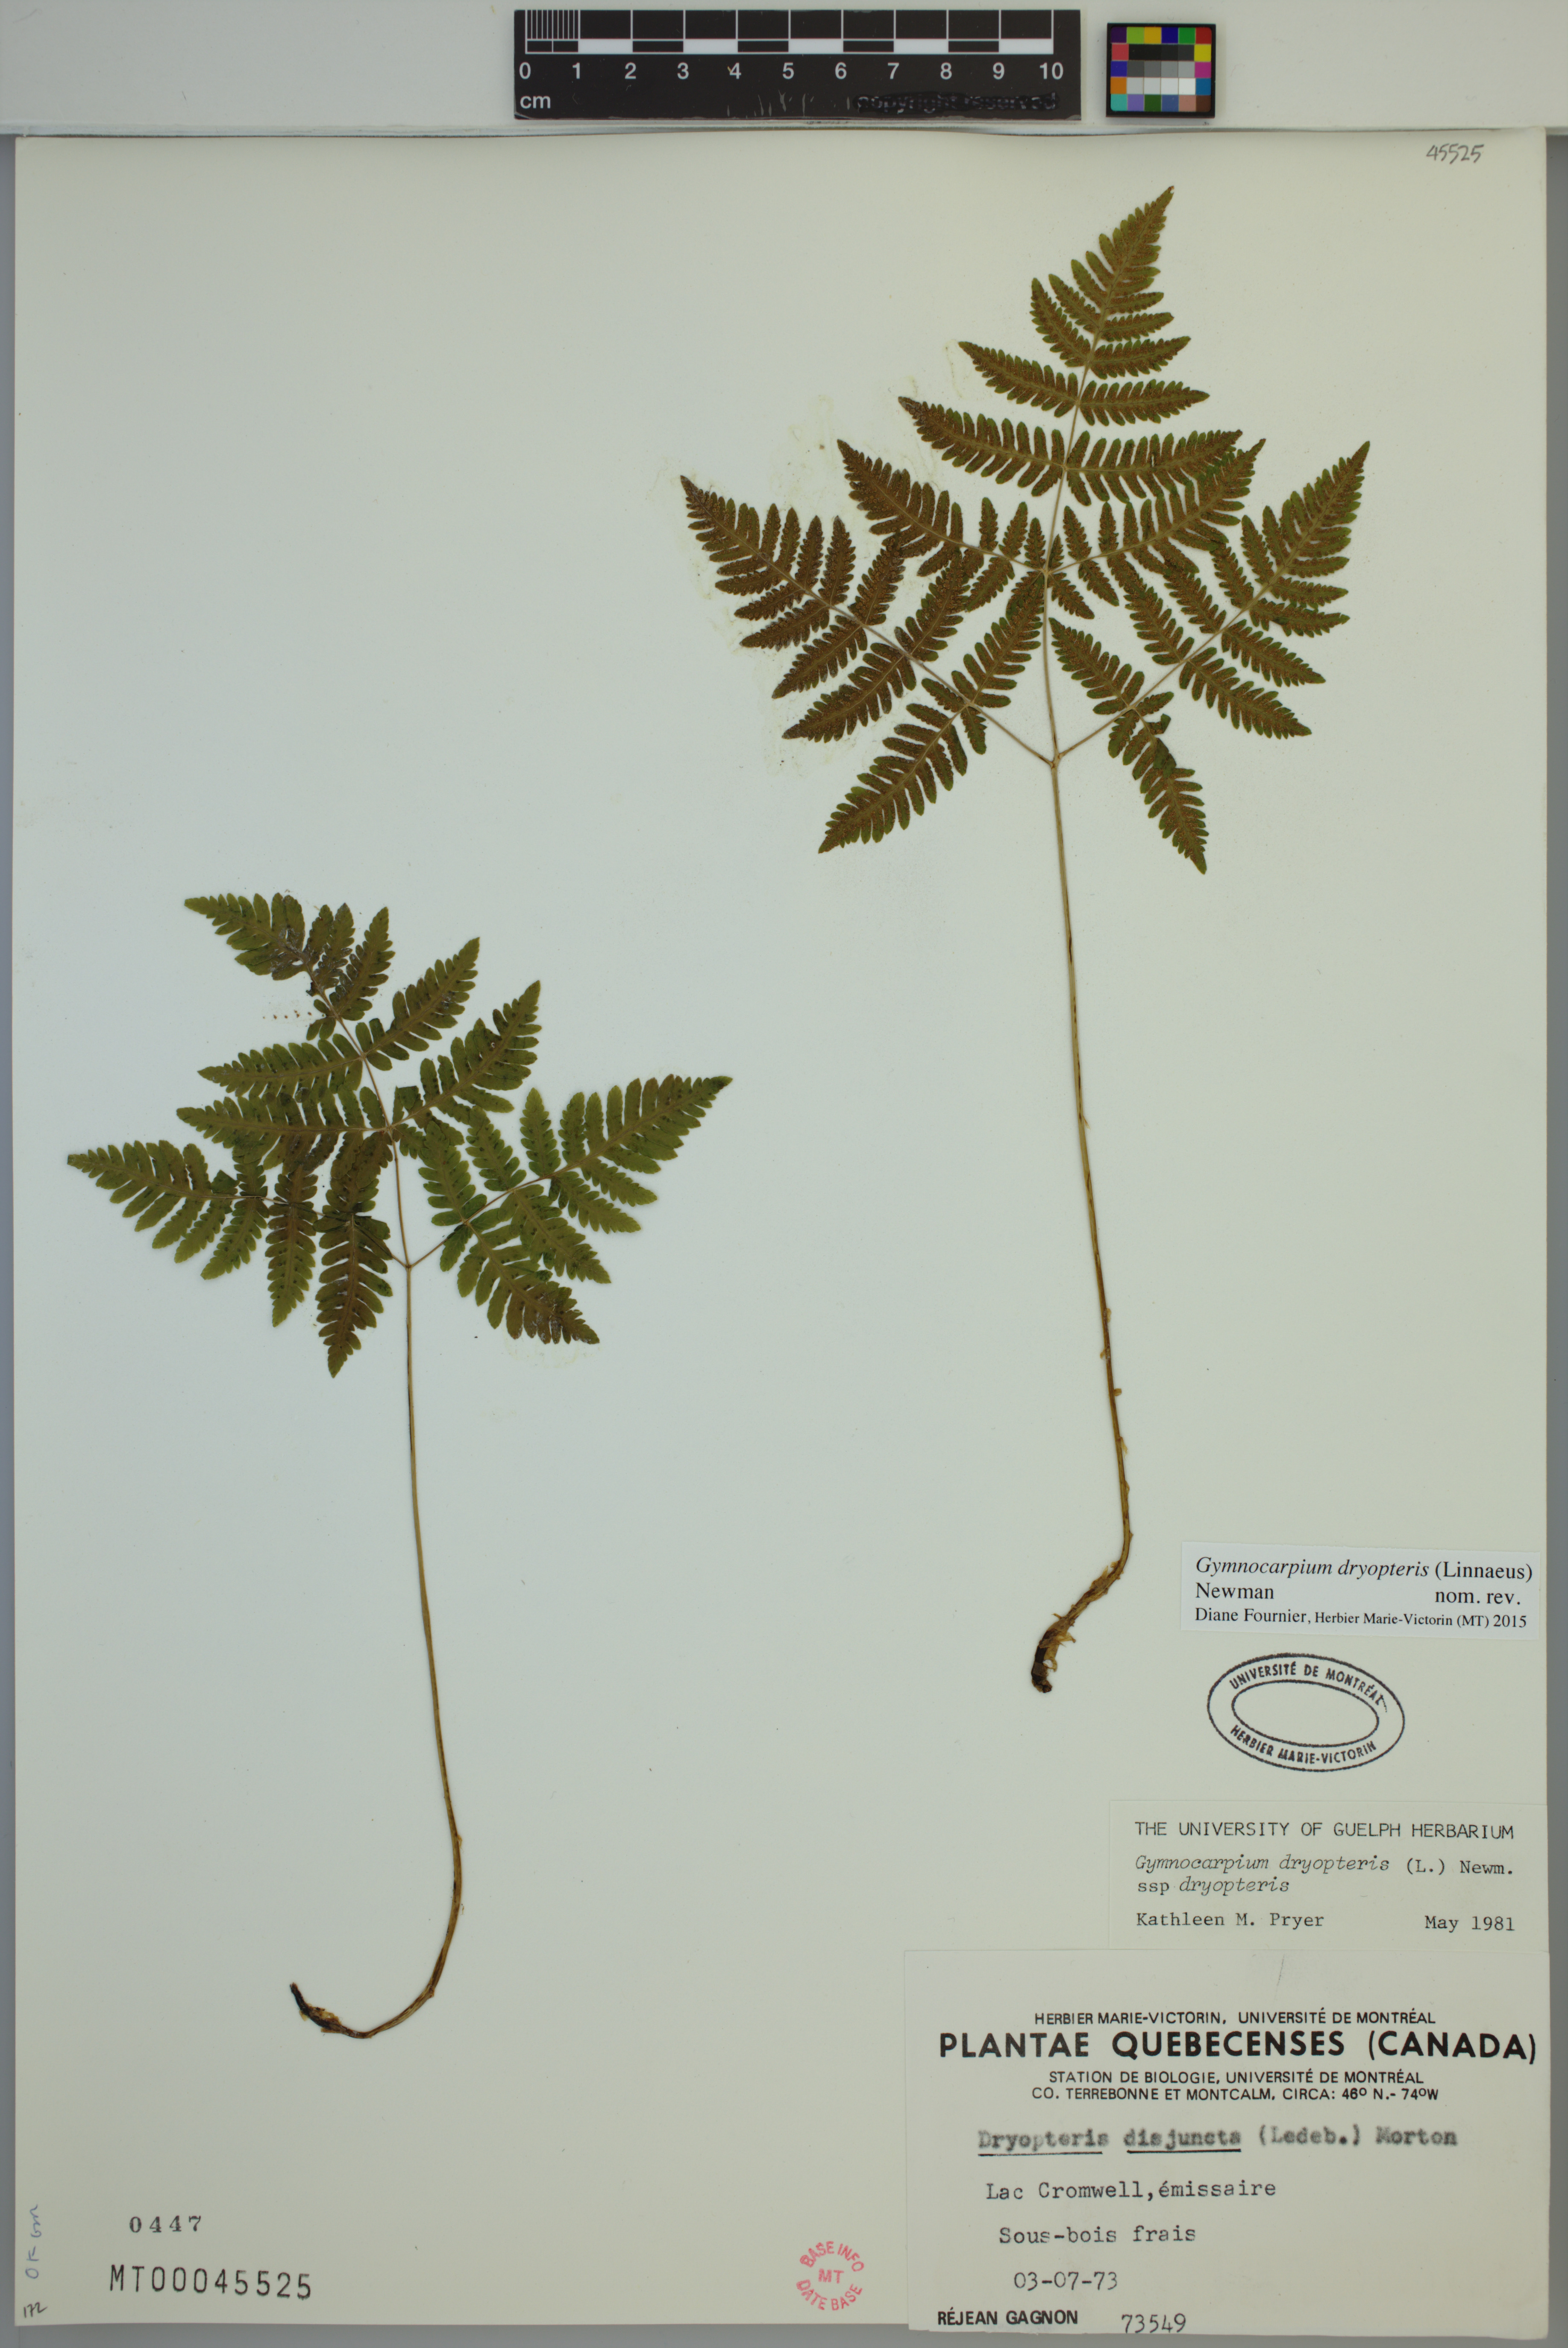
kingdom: Plantae
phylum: Tracheophyta
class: Polypodiopsida
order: Polypodiales
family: Cystopteridaceae
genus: Gymnocarpium
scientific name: Gymnocarpium dryopteris
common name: Oak fern
